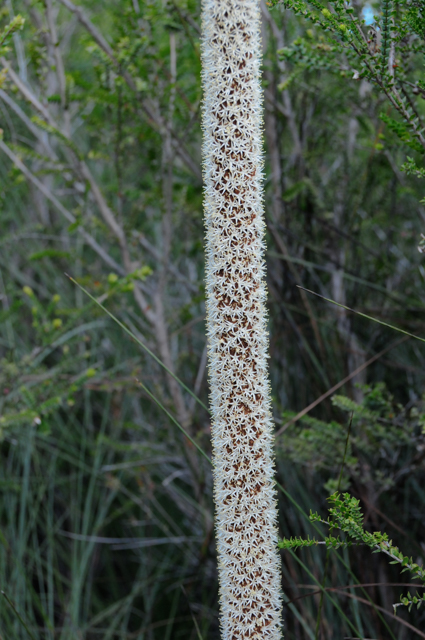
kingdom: Plantae
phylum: Tracheophyta
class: Liliopsida
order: Asparagales
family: Asphodelaceae
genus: Xanthorrhoea
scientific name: Xanthorrhoea australis
